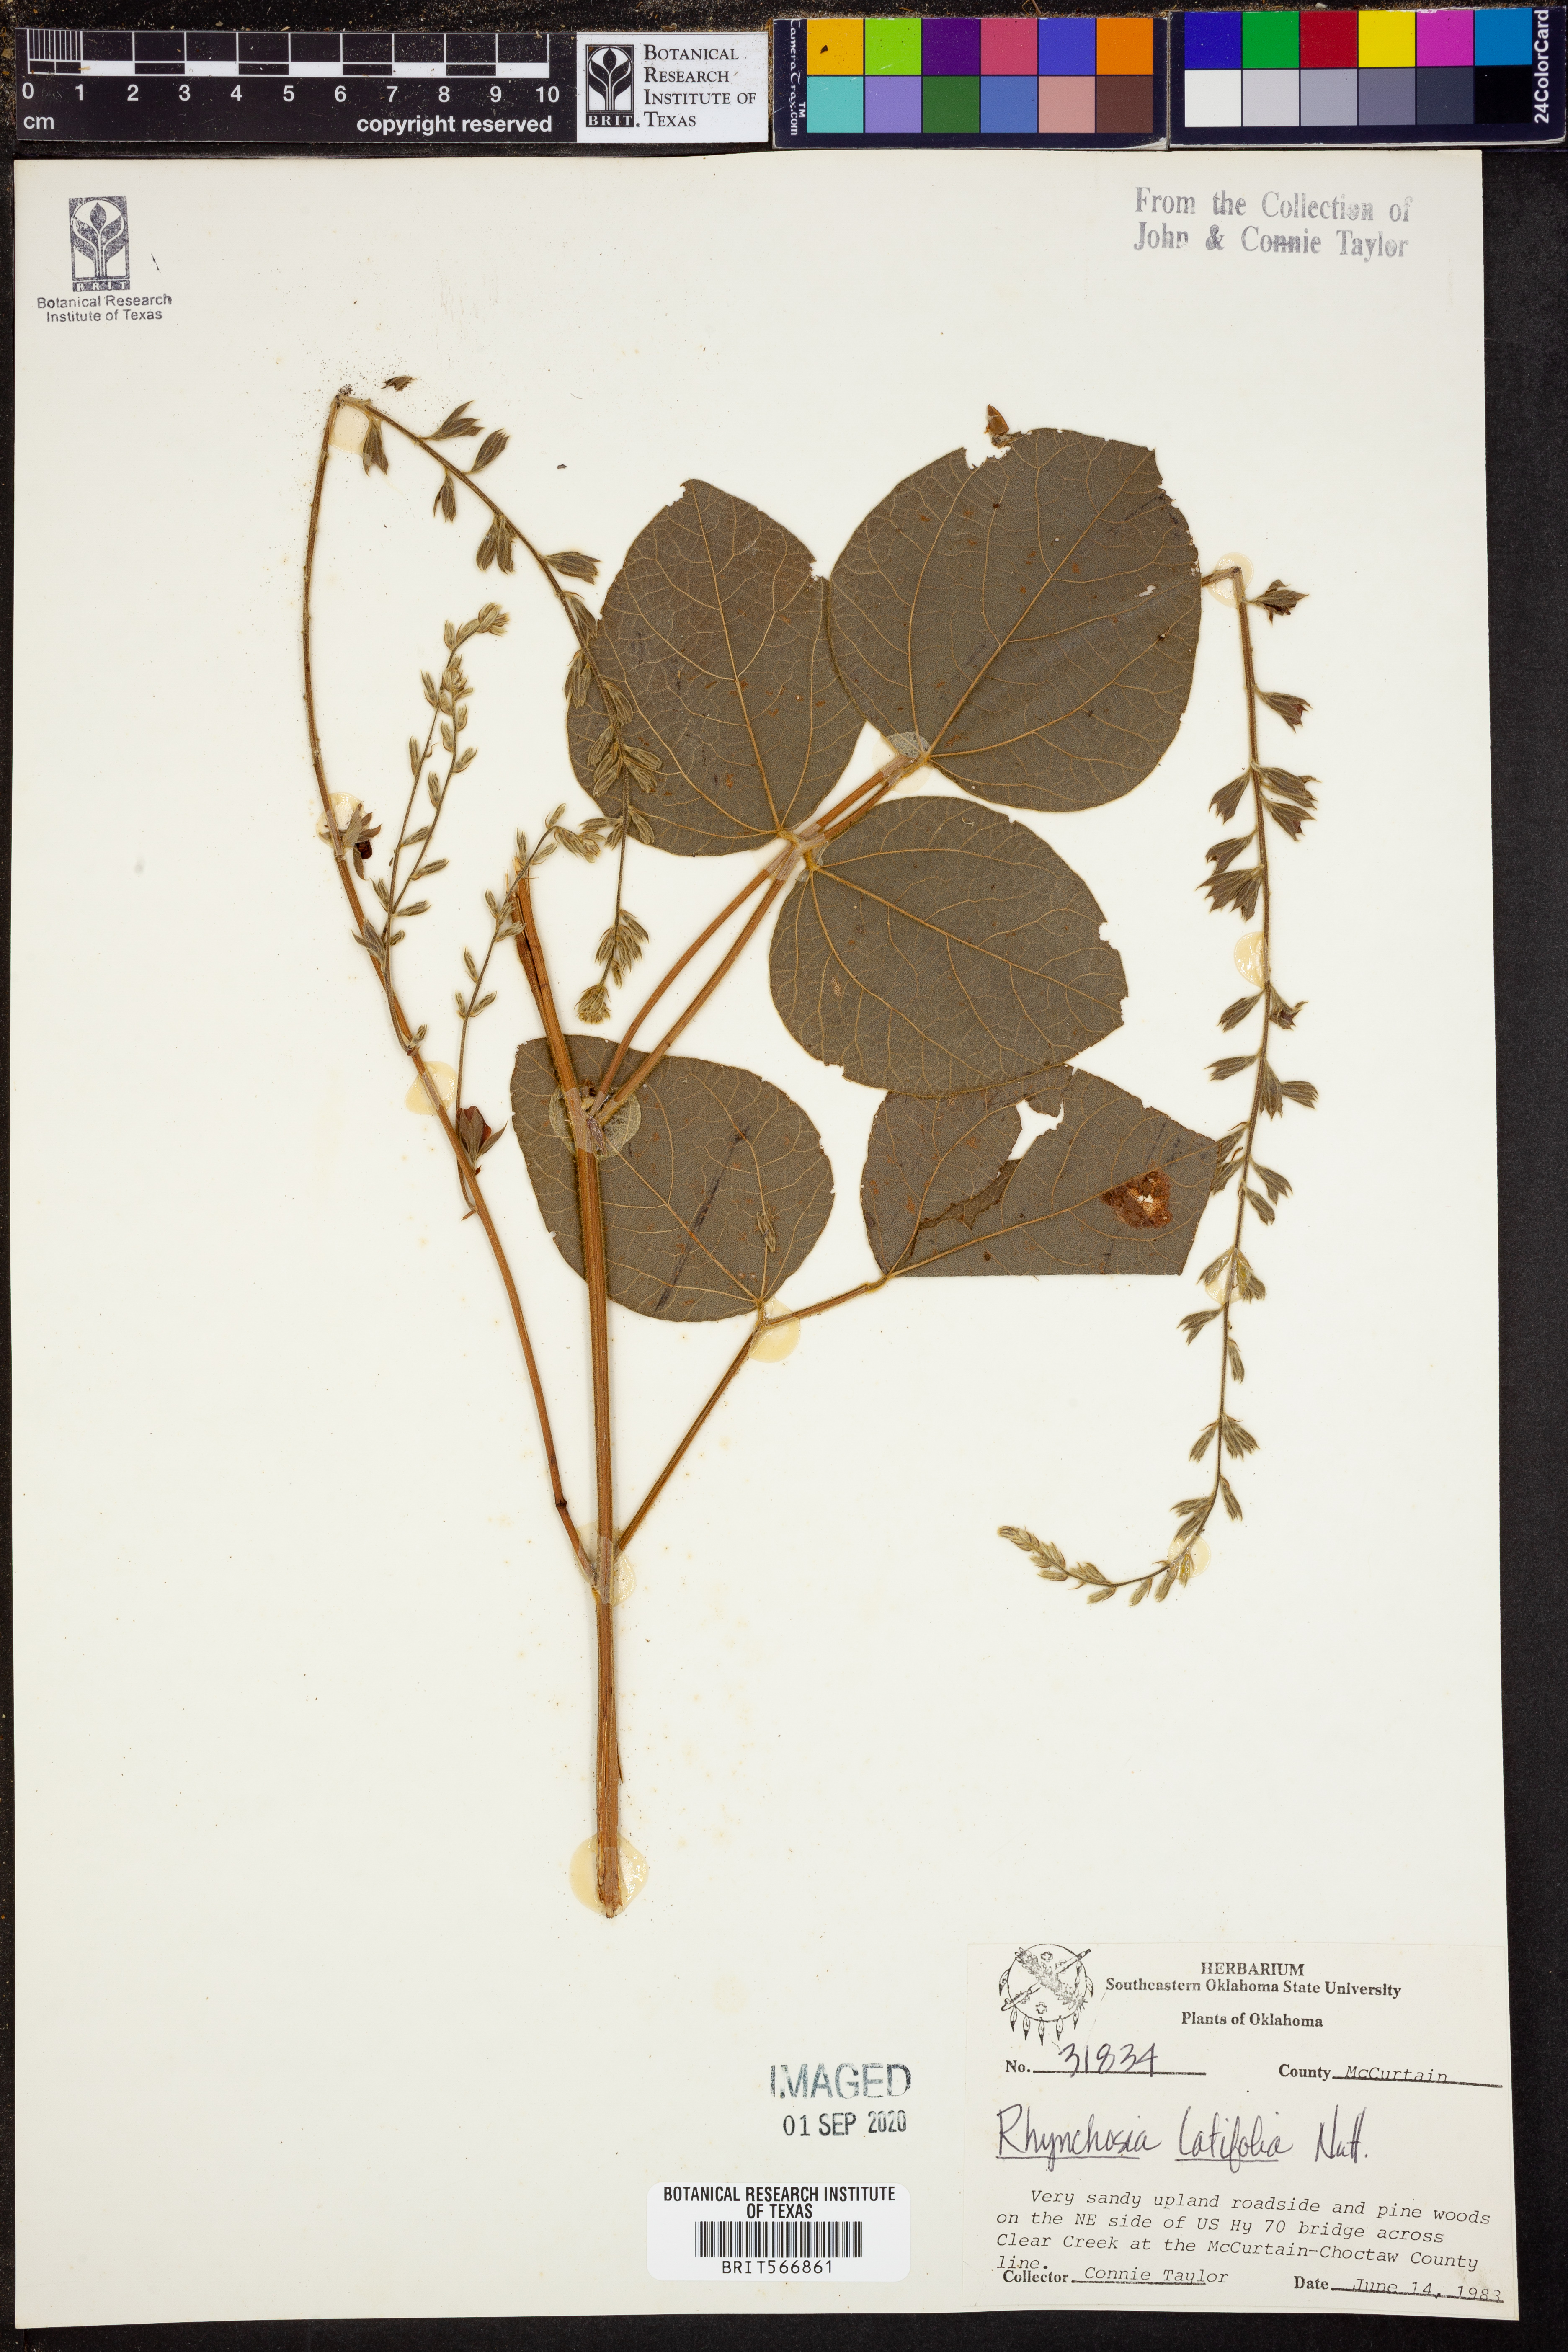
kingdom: Plantae
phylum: Tracheophyta
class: Magnoliopsida
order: Fabales
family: Fabaceae
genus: Rhynchosia
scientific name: Rhynchosia latifolia
